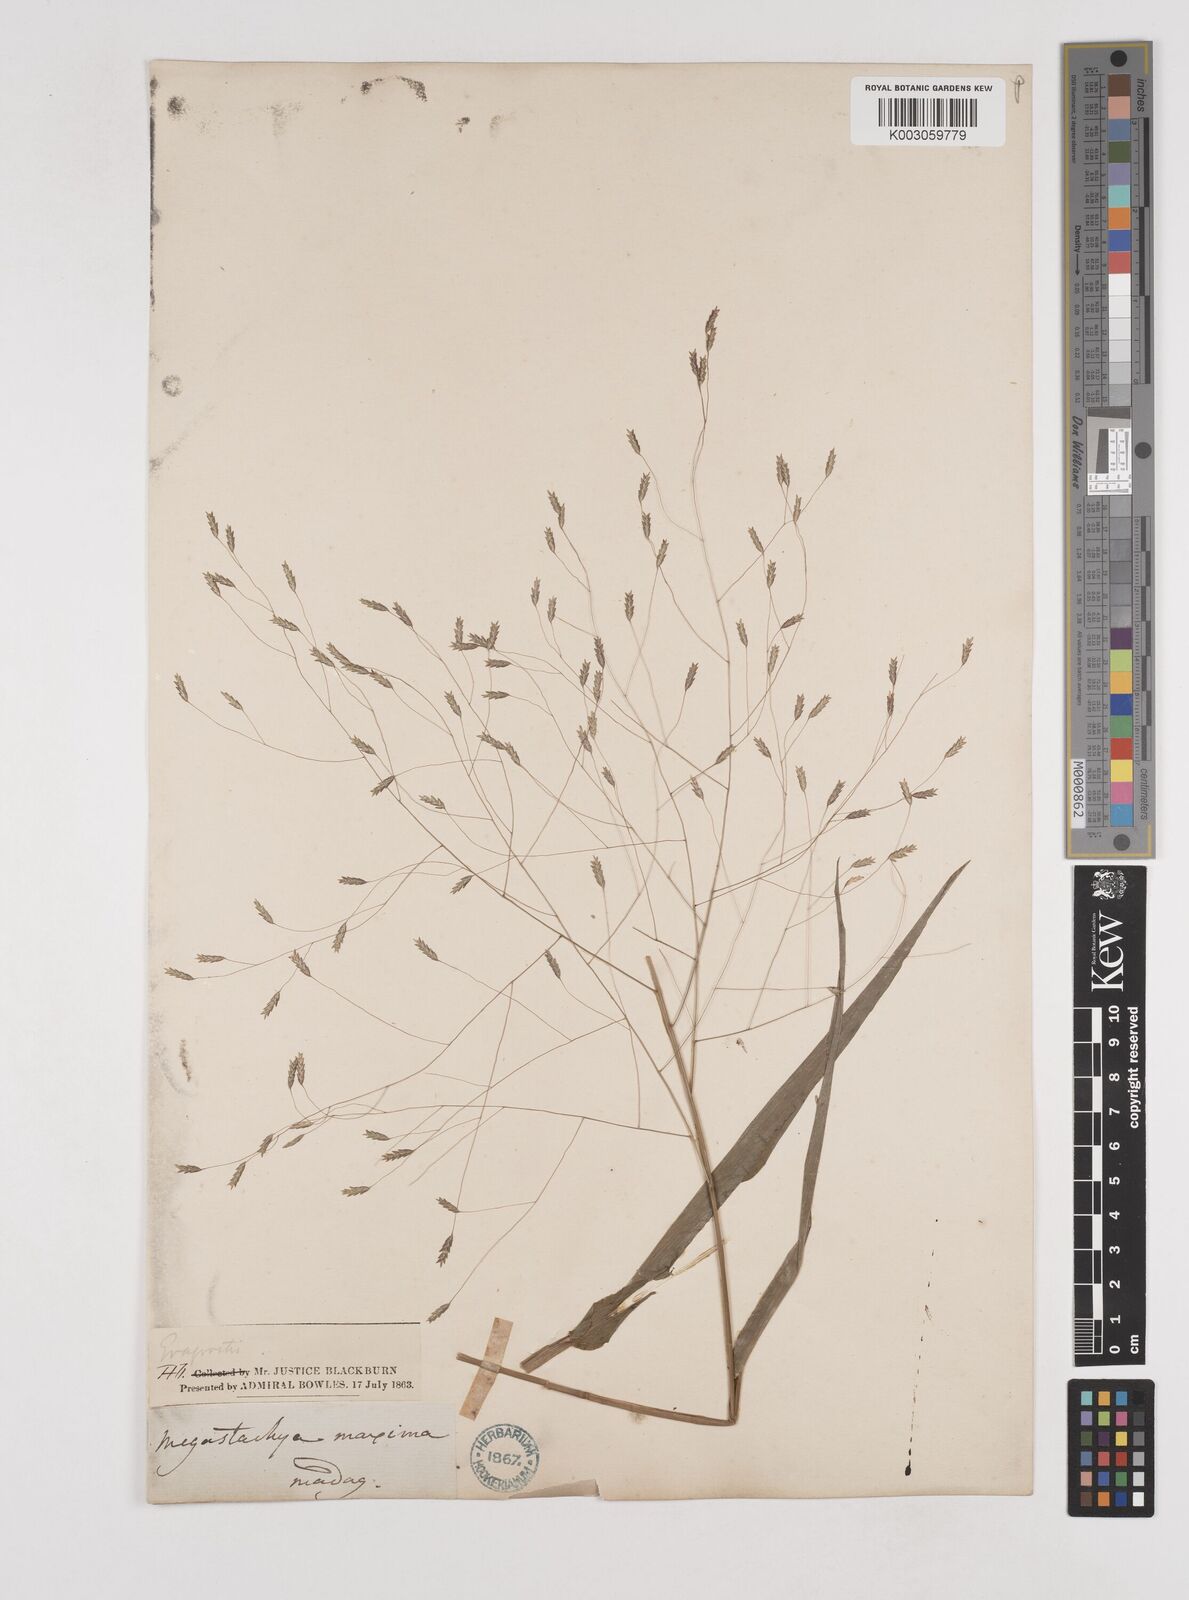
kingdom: Plantae
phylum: Tracheophyta
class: Liliopsida
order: Poales
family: Poaceae
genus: Megastachya
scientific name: Megastachya madagascariensis
